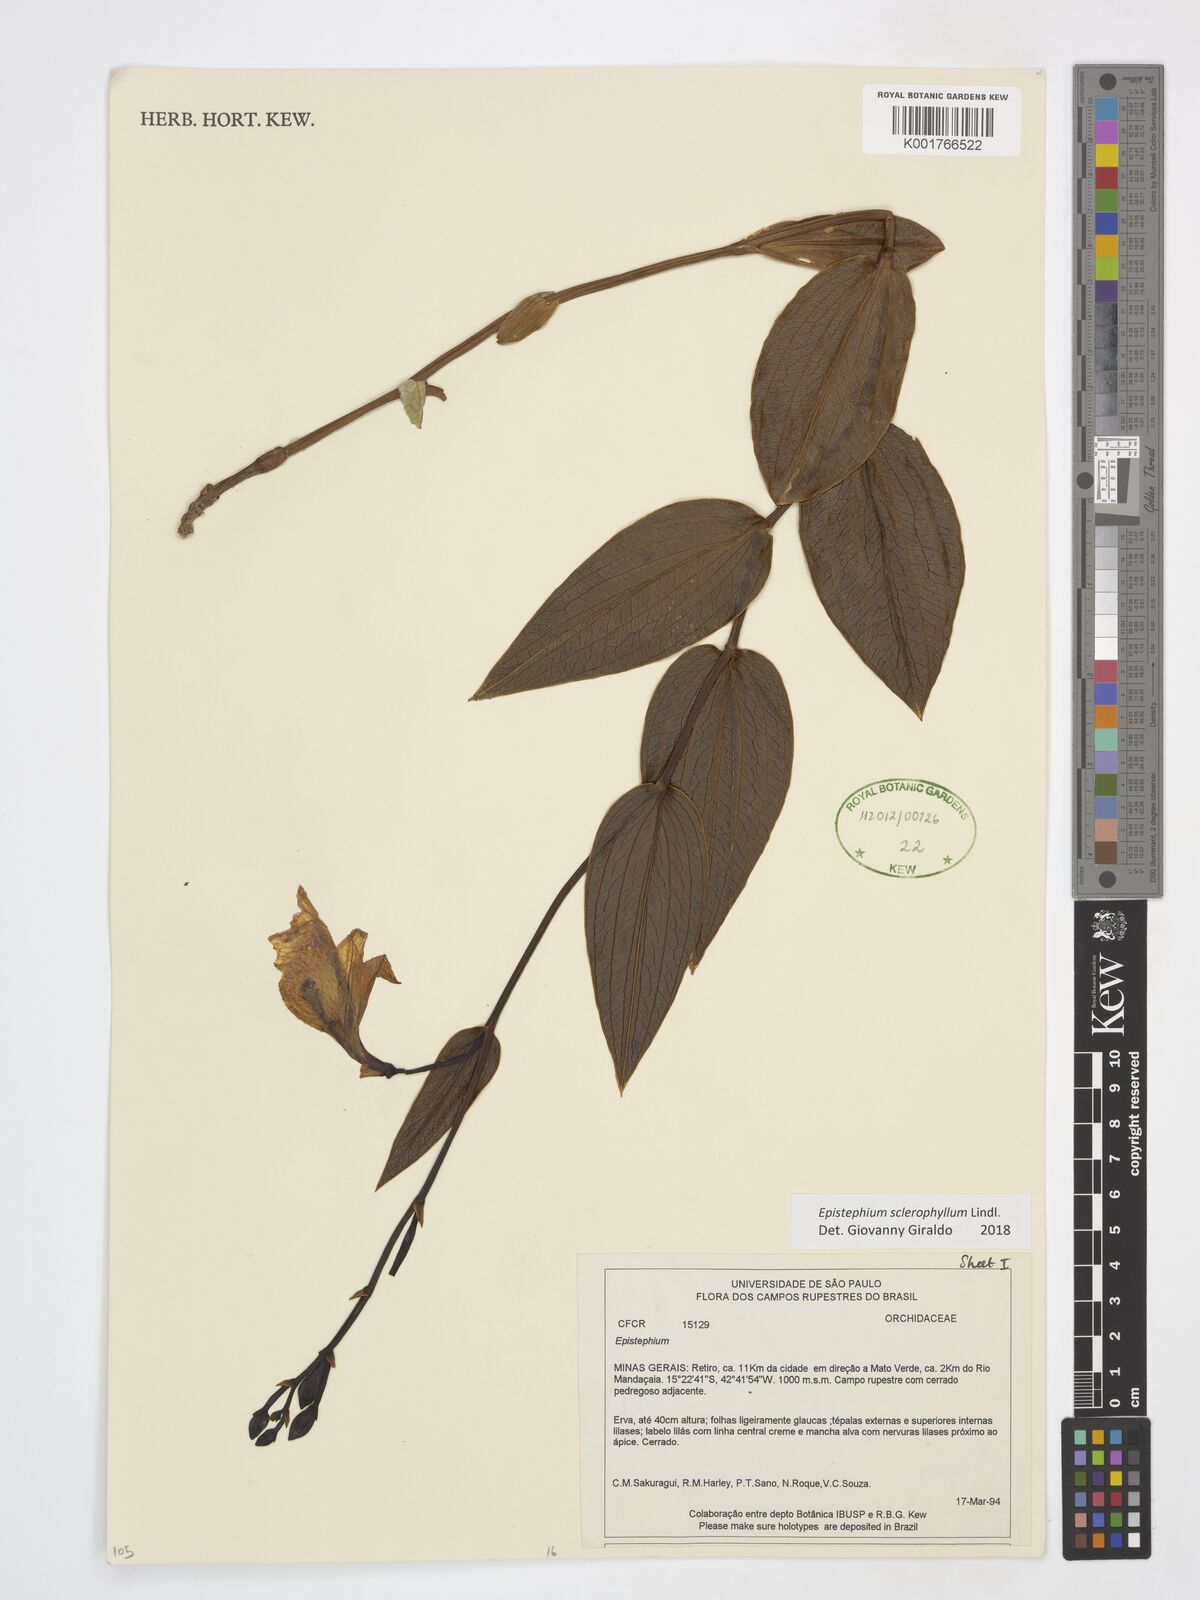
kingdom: Plantae
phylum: Tracheophyta
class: Liliopsida
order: Asparagales
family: Orchidaceae
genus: Epistephium
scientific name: Epistephium sclerophyllum
